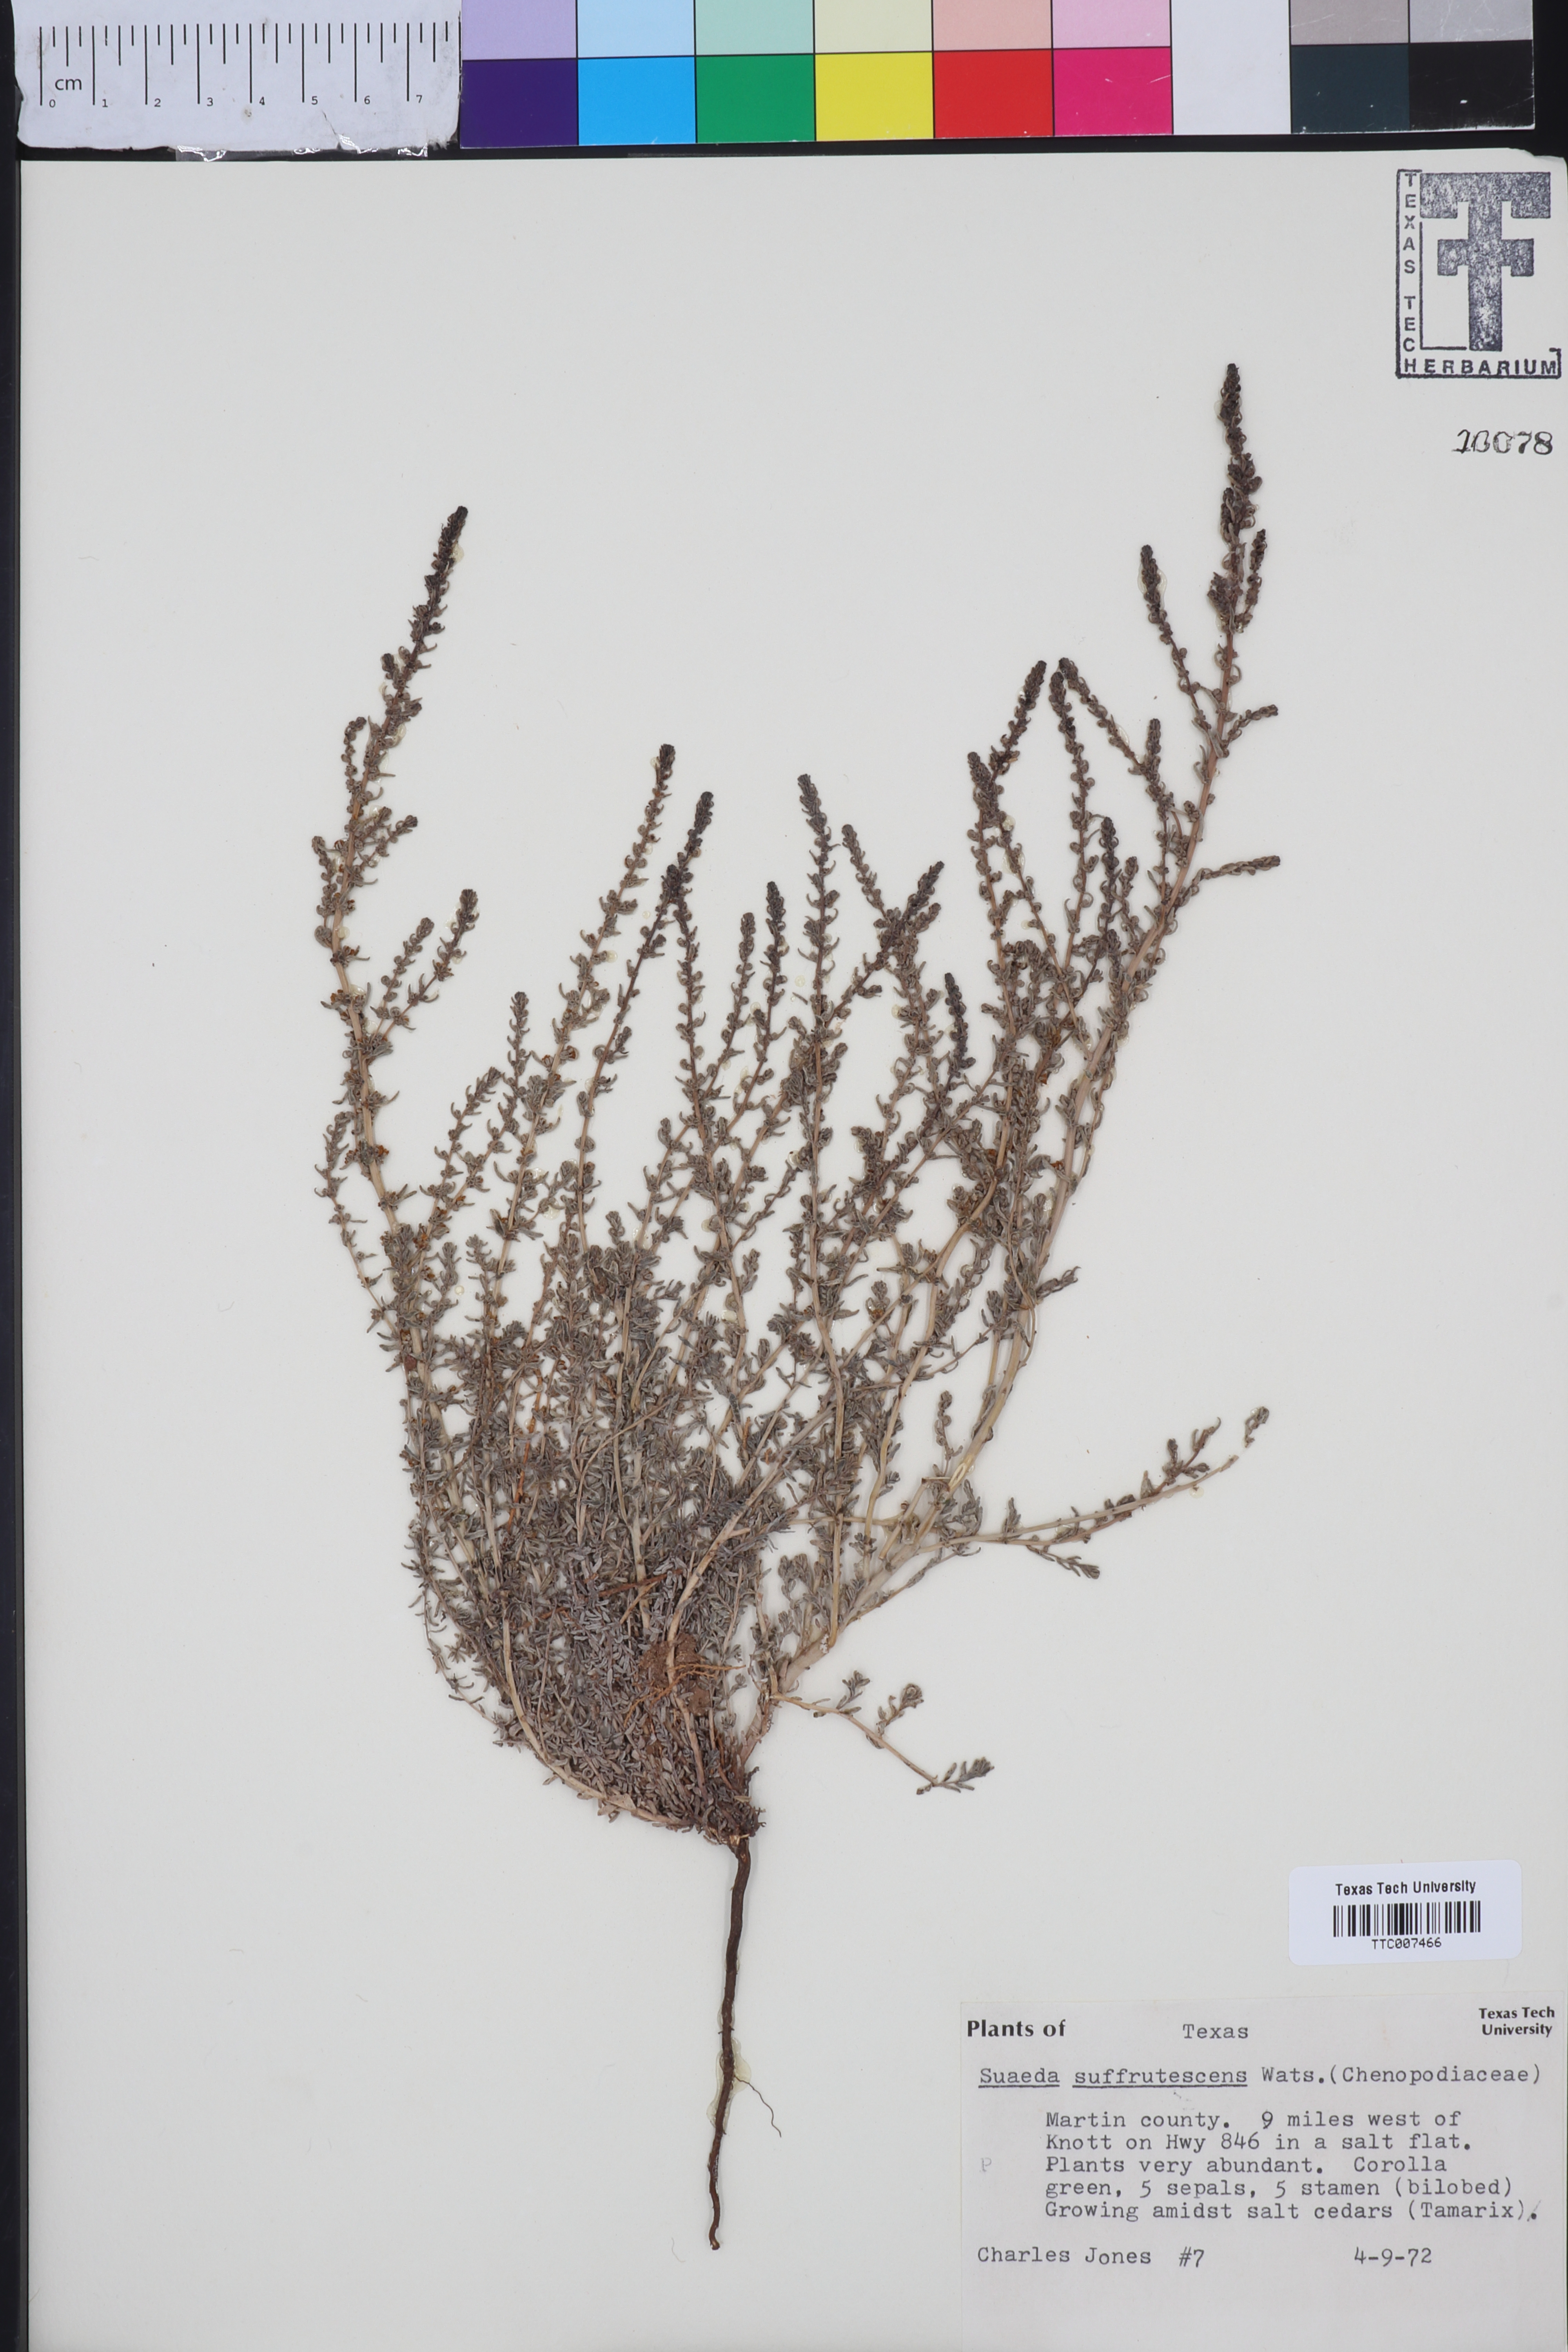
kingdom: Plantae
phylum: Tracheophyta
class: Magnoliopsida
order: Caryophyllales
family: Amaranthaceae
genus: Suaeda
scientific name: Suaeda suffrutescens
